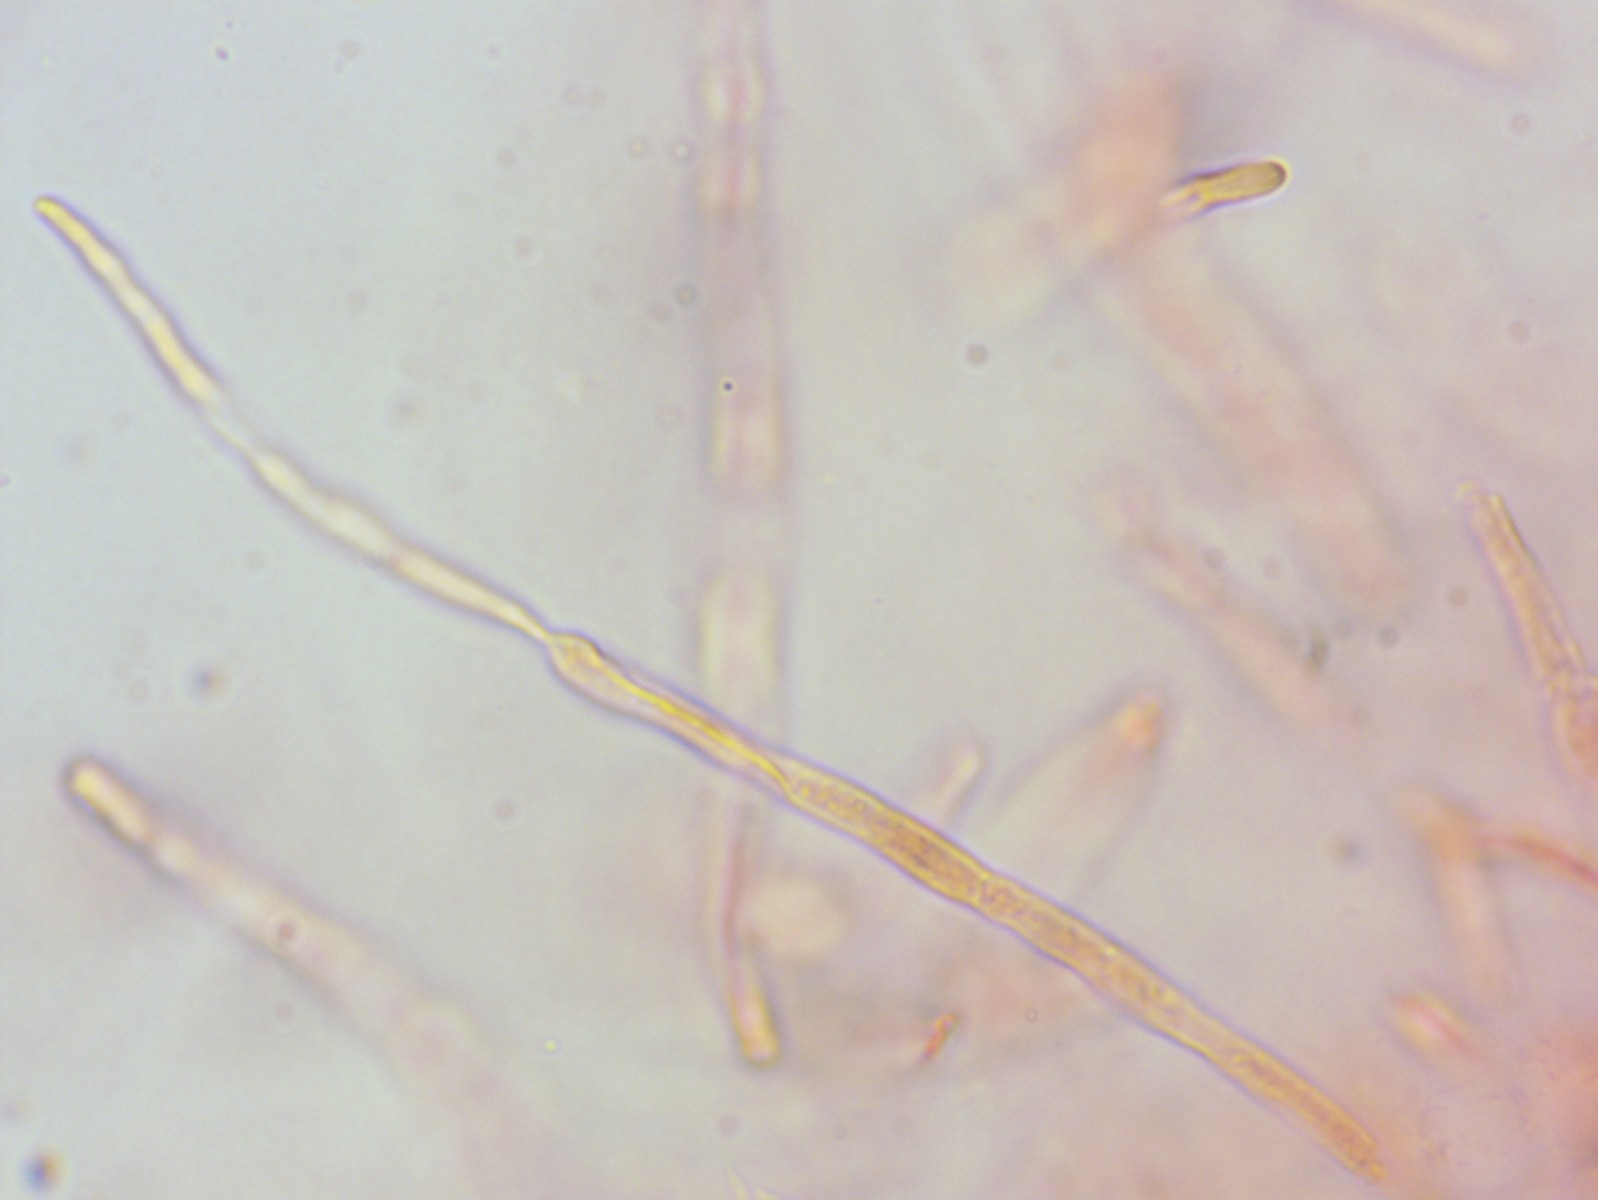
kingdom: Fungi
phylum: Basidiomycota
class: Agaricomycetes
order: Russulales
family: Russulaceae
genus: Russula
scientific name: Russula vesca
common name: spiselig skørhat
